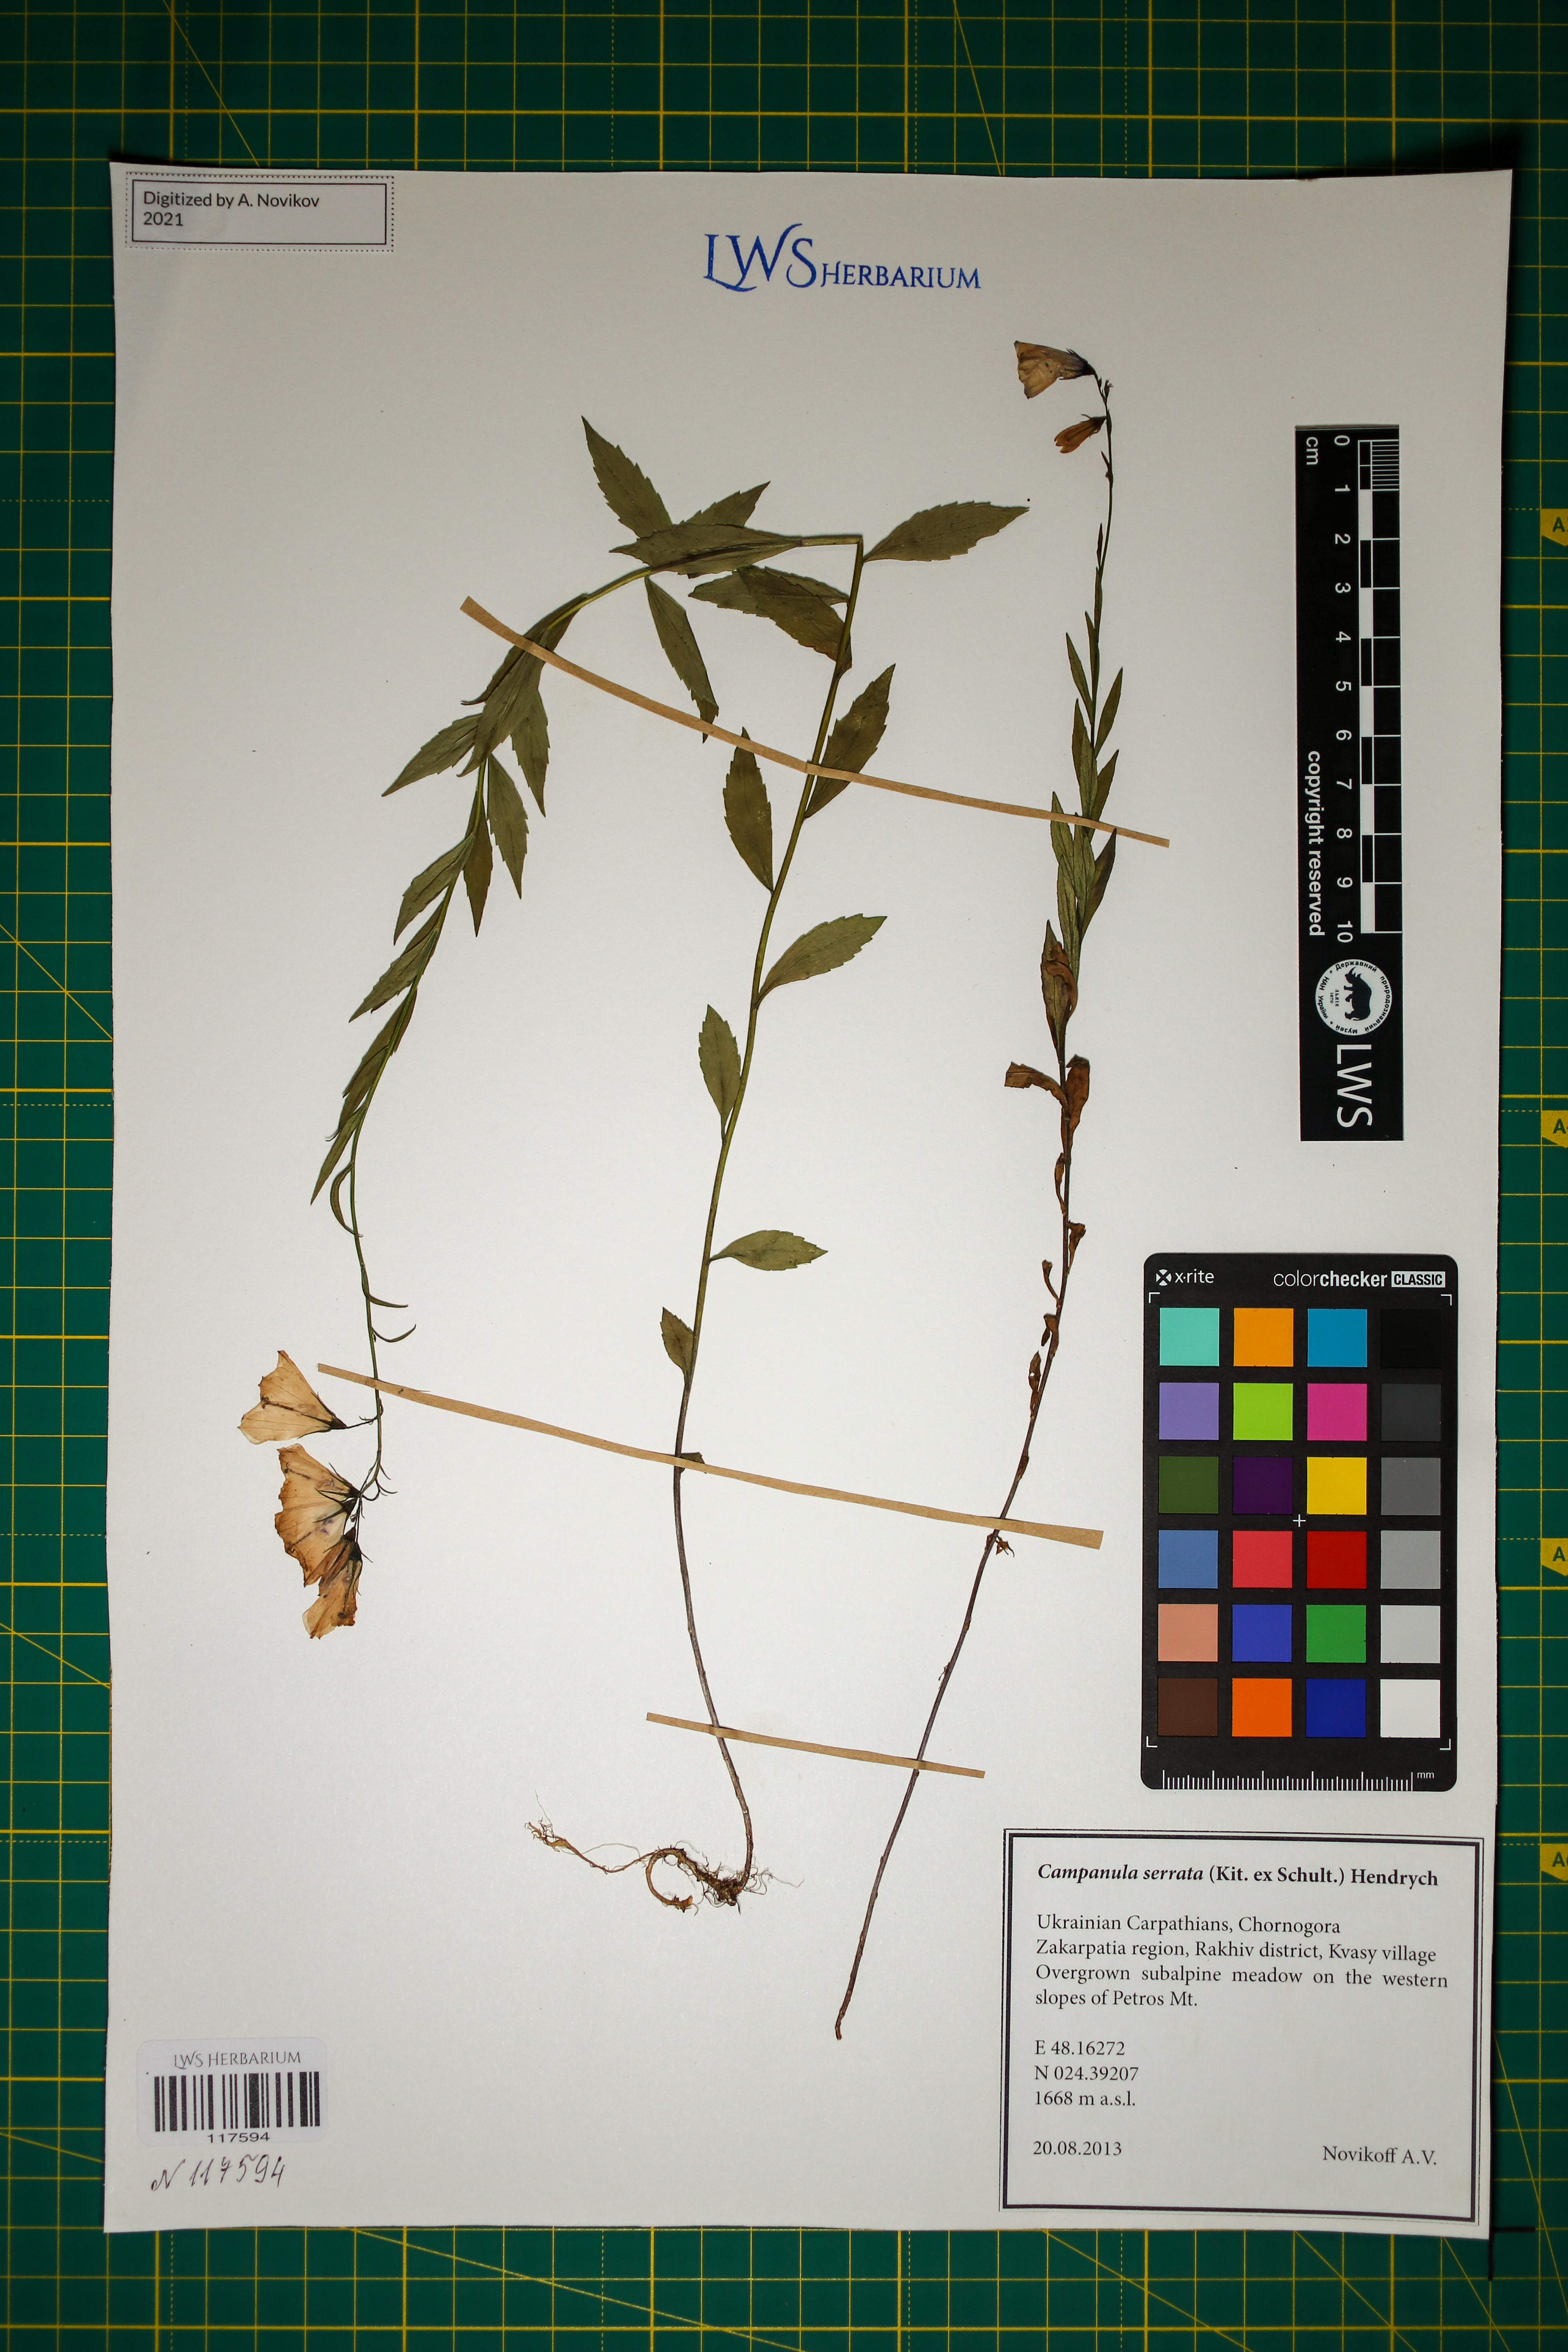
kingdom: Plantae
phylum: Tracheophyta
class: Magnoliopsida
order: Asterales
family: Campanulaceae
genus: Campanula
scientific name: Campanula serrata
